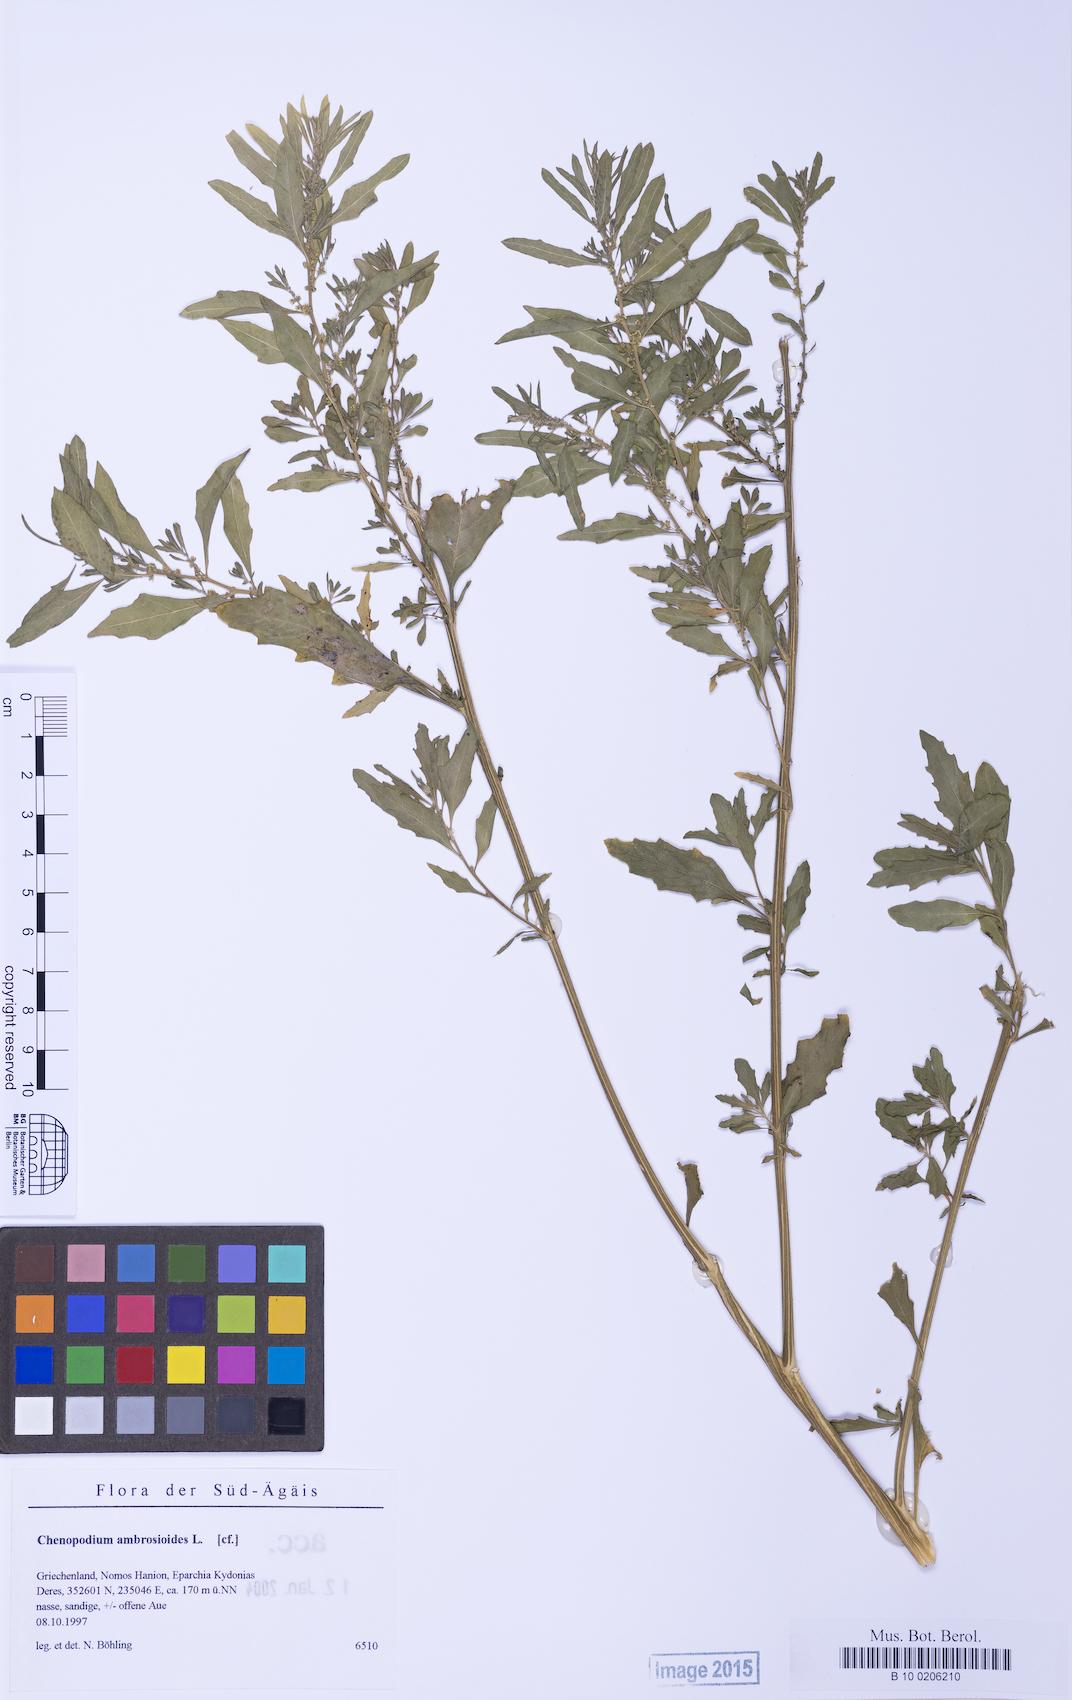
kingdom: Plantae
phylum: Tracheophyta
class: Magnoliopsida
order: Caryophyllales
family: Amaranthaceae
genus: Dysphania
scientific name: Dysphania ambrosioides
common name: Wormseed
